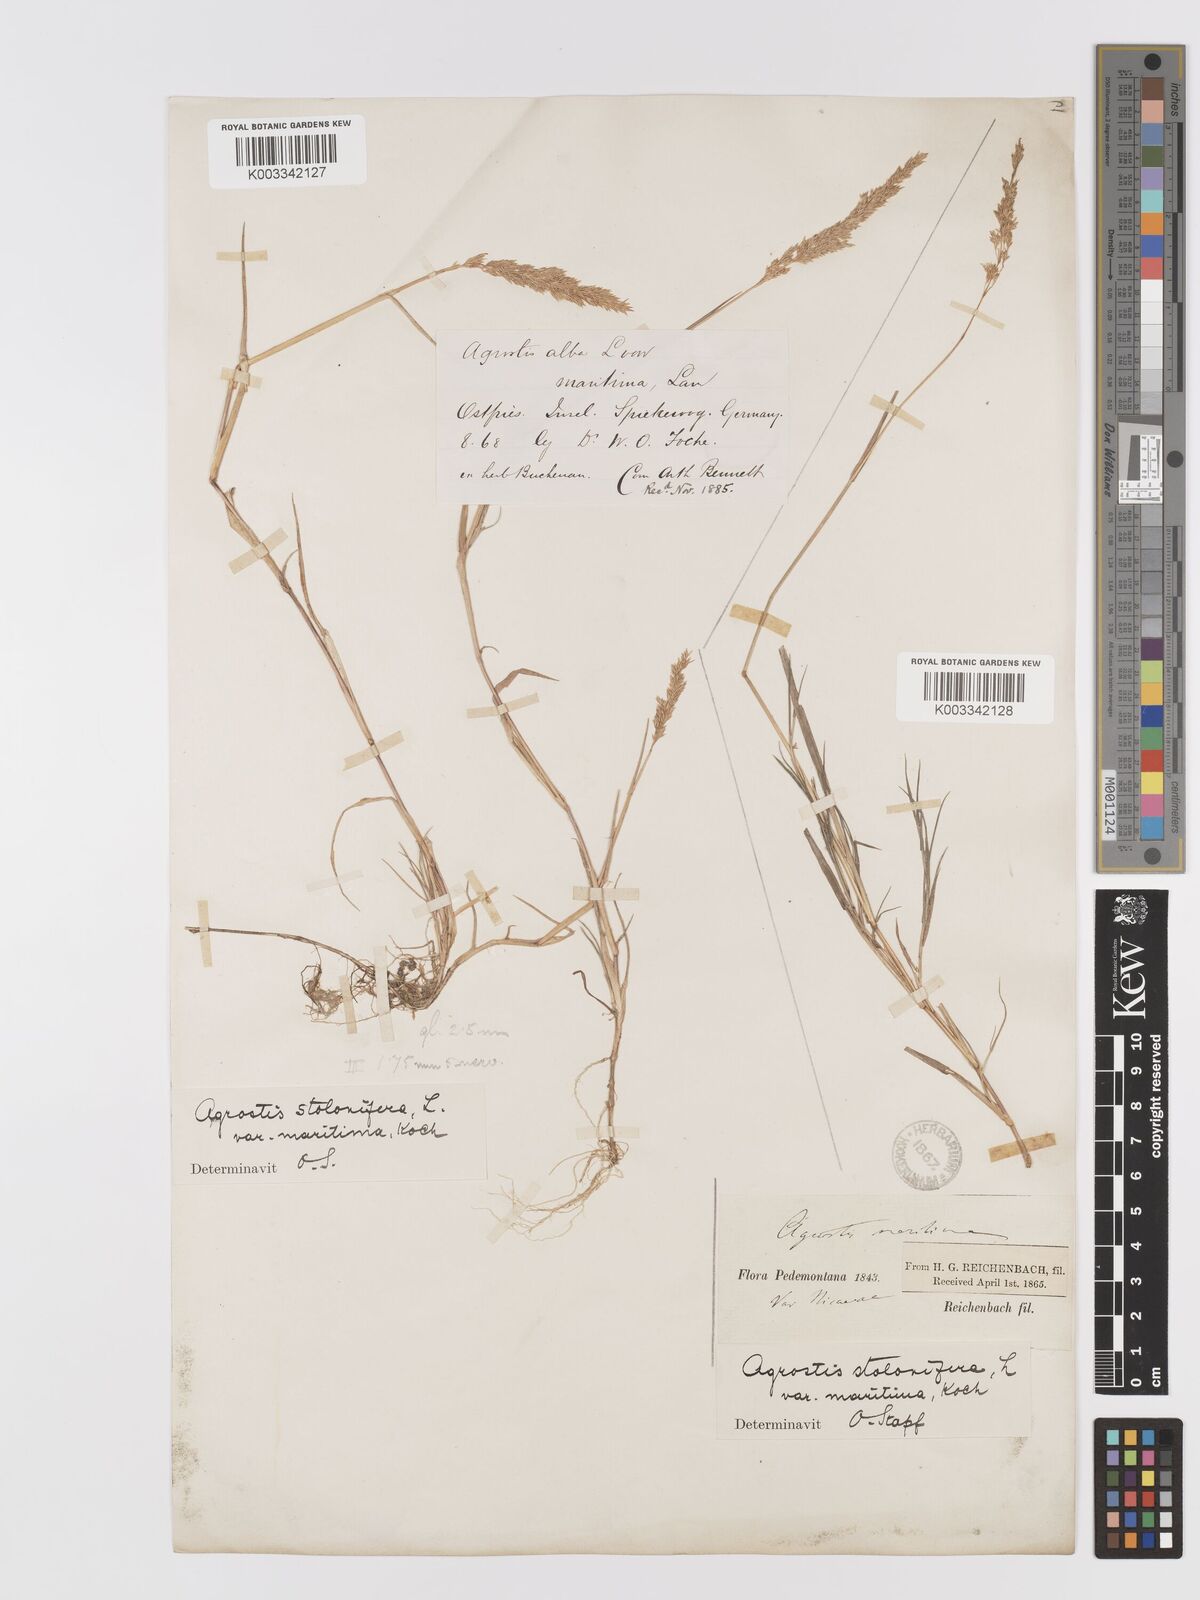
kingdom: Plantae
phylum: Tracheophyta
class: Liliopsida
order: Poales
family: Poaceae
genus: Agrostis
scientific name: Agrostis stolonifera
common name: Creeping bentgrass
